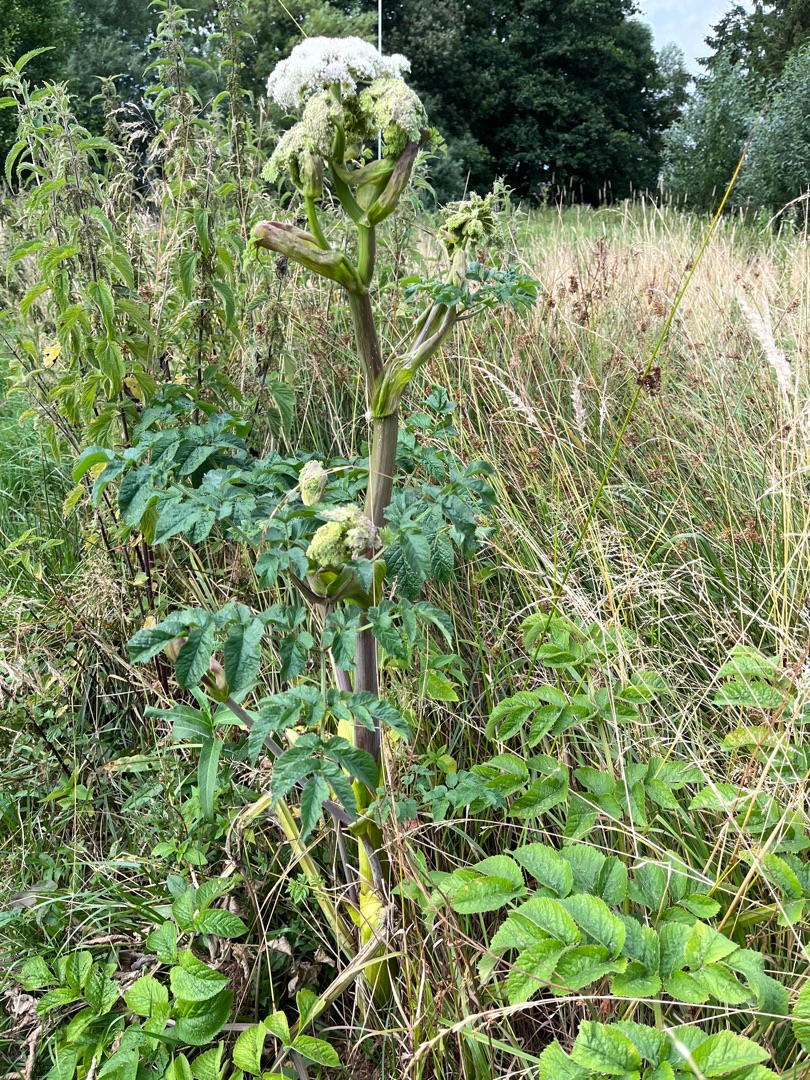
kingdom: Plantae
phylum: Tracheophyta
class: Magnoliopsida
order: Apiales
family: Apiaceae
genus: Angelica
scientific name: Angelica sylvestris
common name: Angelik
